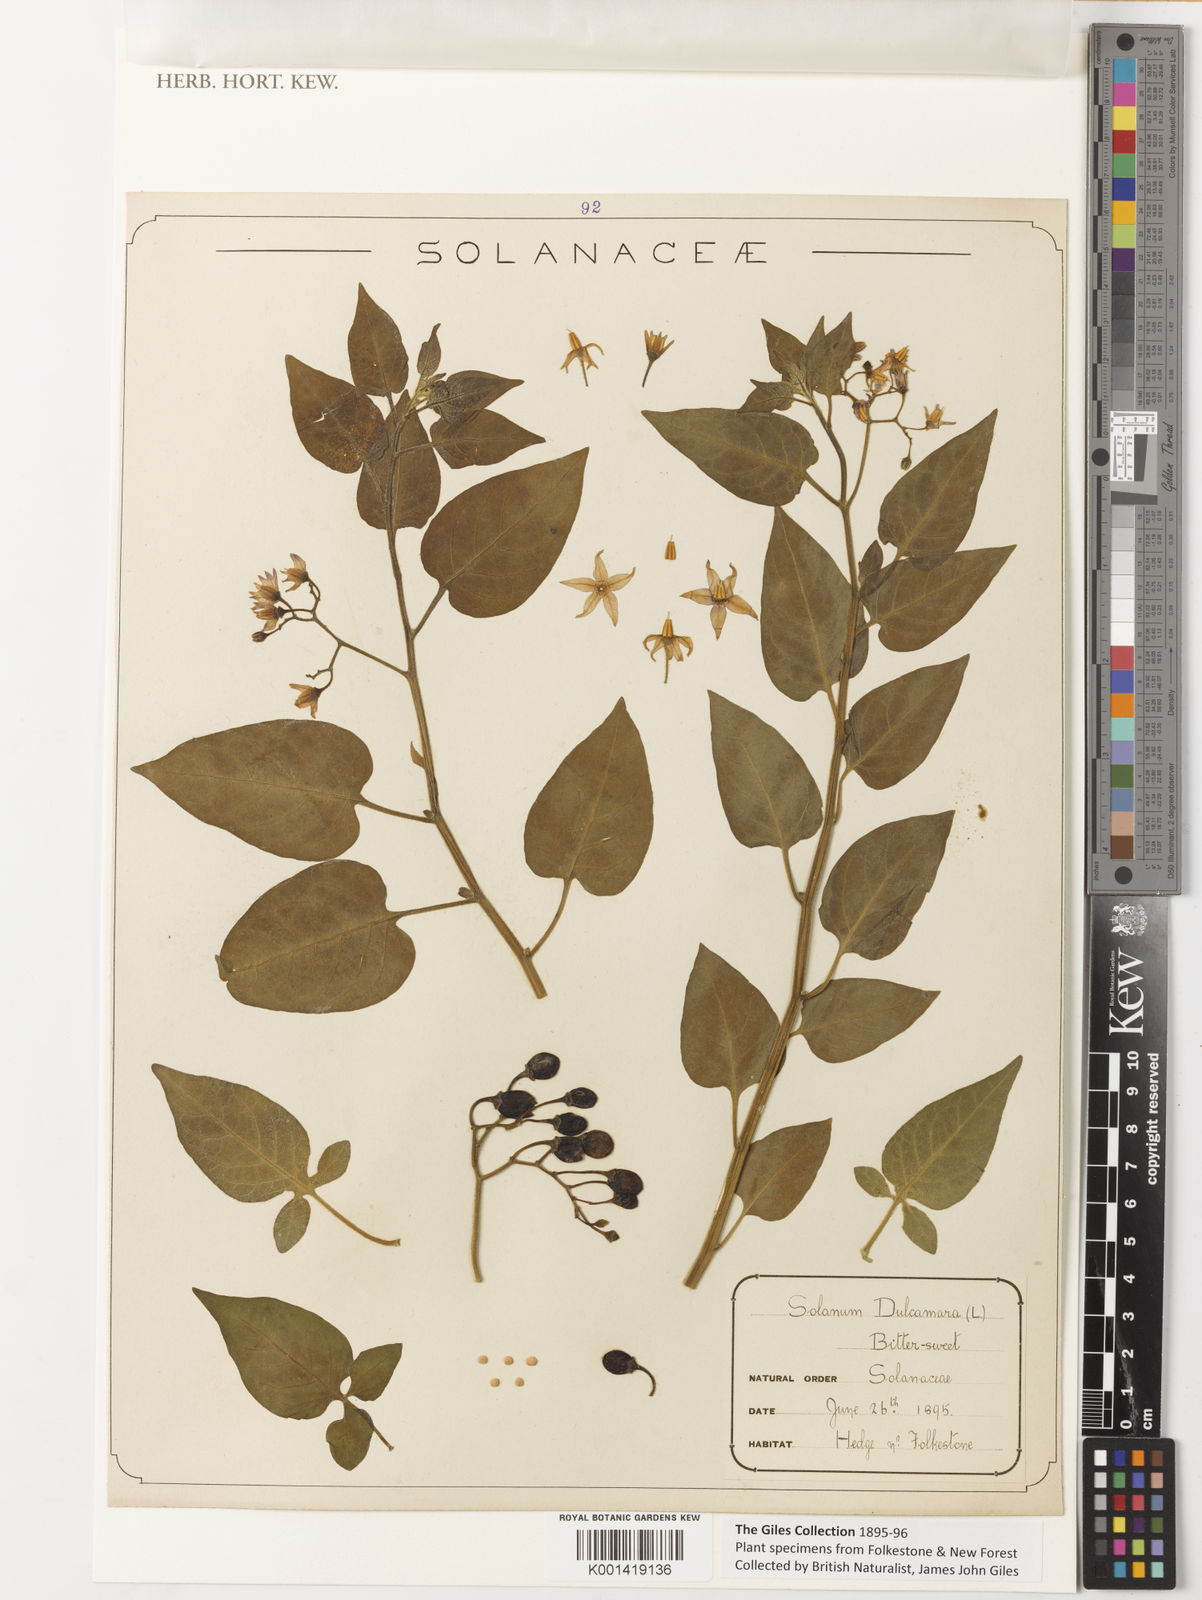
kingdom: Plantae
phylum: Tracheophyta
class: Magnoliopsida
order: Solanales
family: Solanaceae
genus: Solanum
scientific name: Solanum dulcamara
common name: Climbing nightshade
